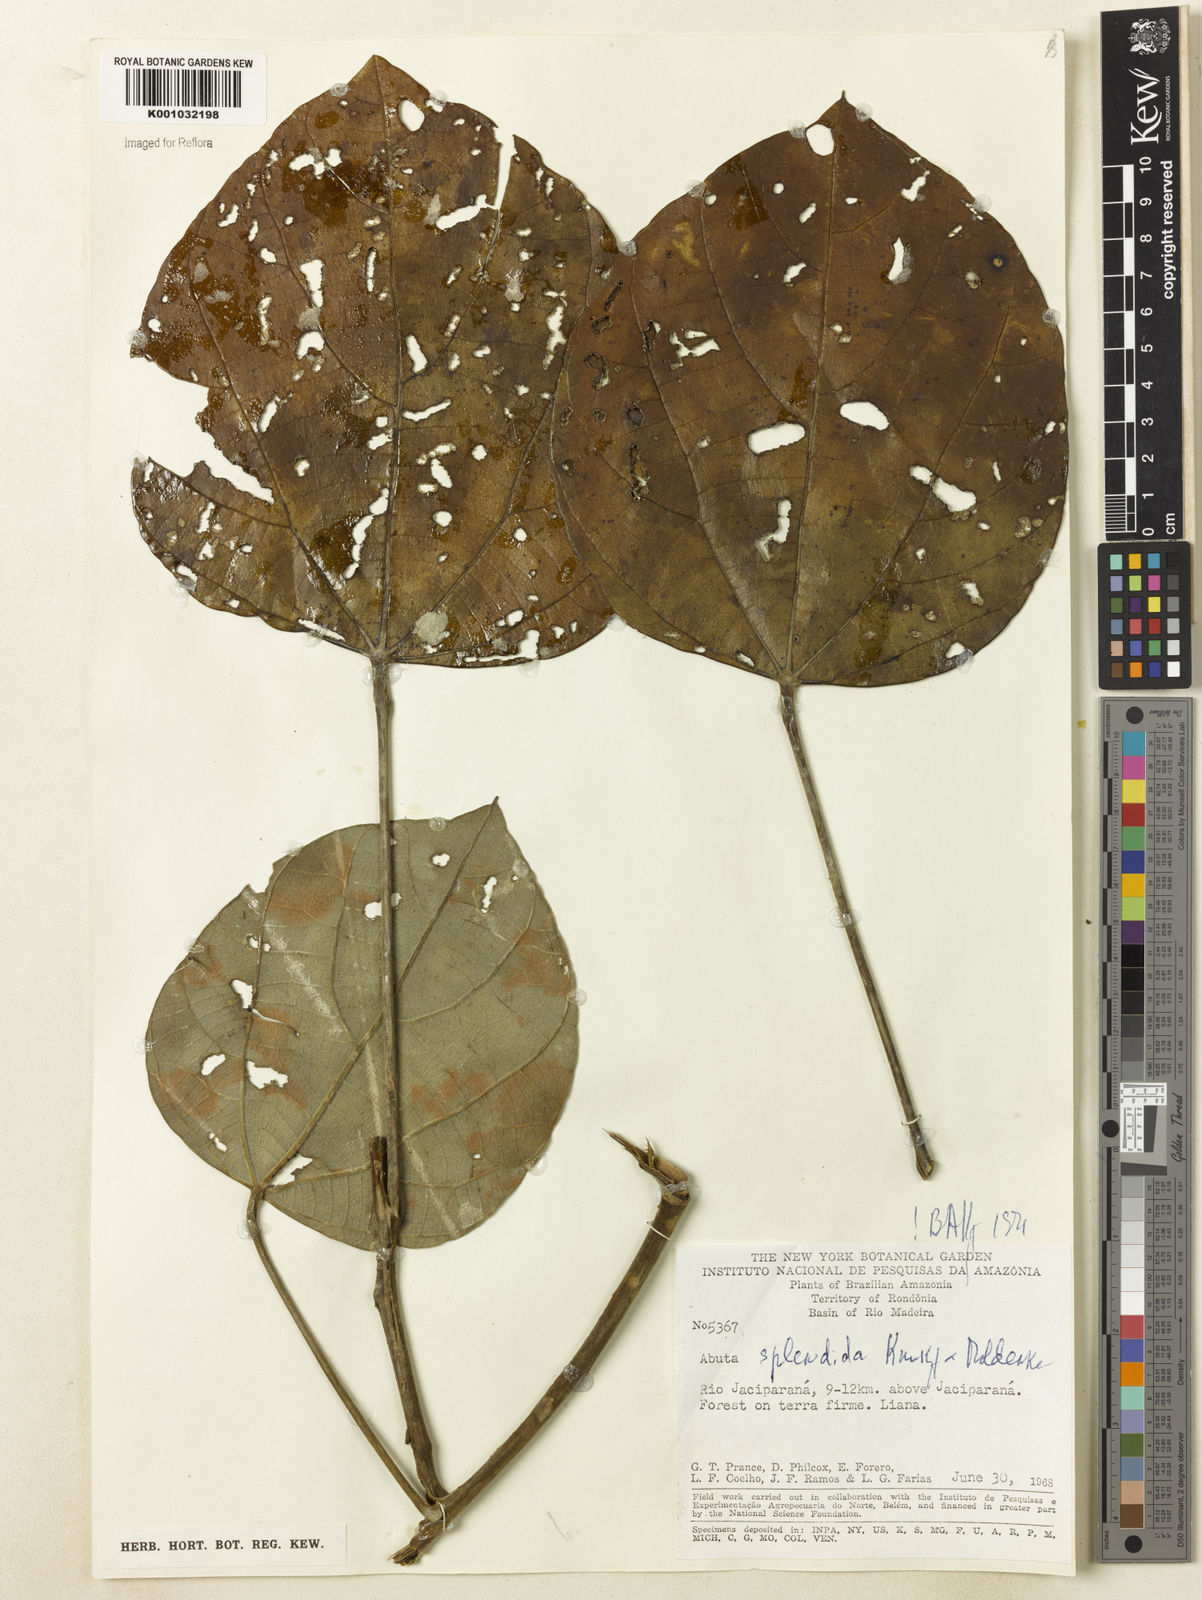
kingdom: Plantae
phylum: Tracheophyta
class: Magnoliopsida
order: Ranunculales
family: Menispermaceae
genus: Abuta
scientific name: Abuta
